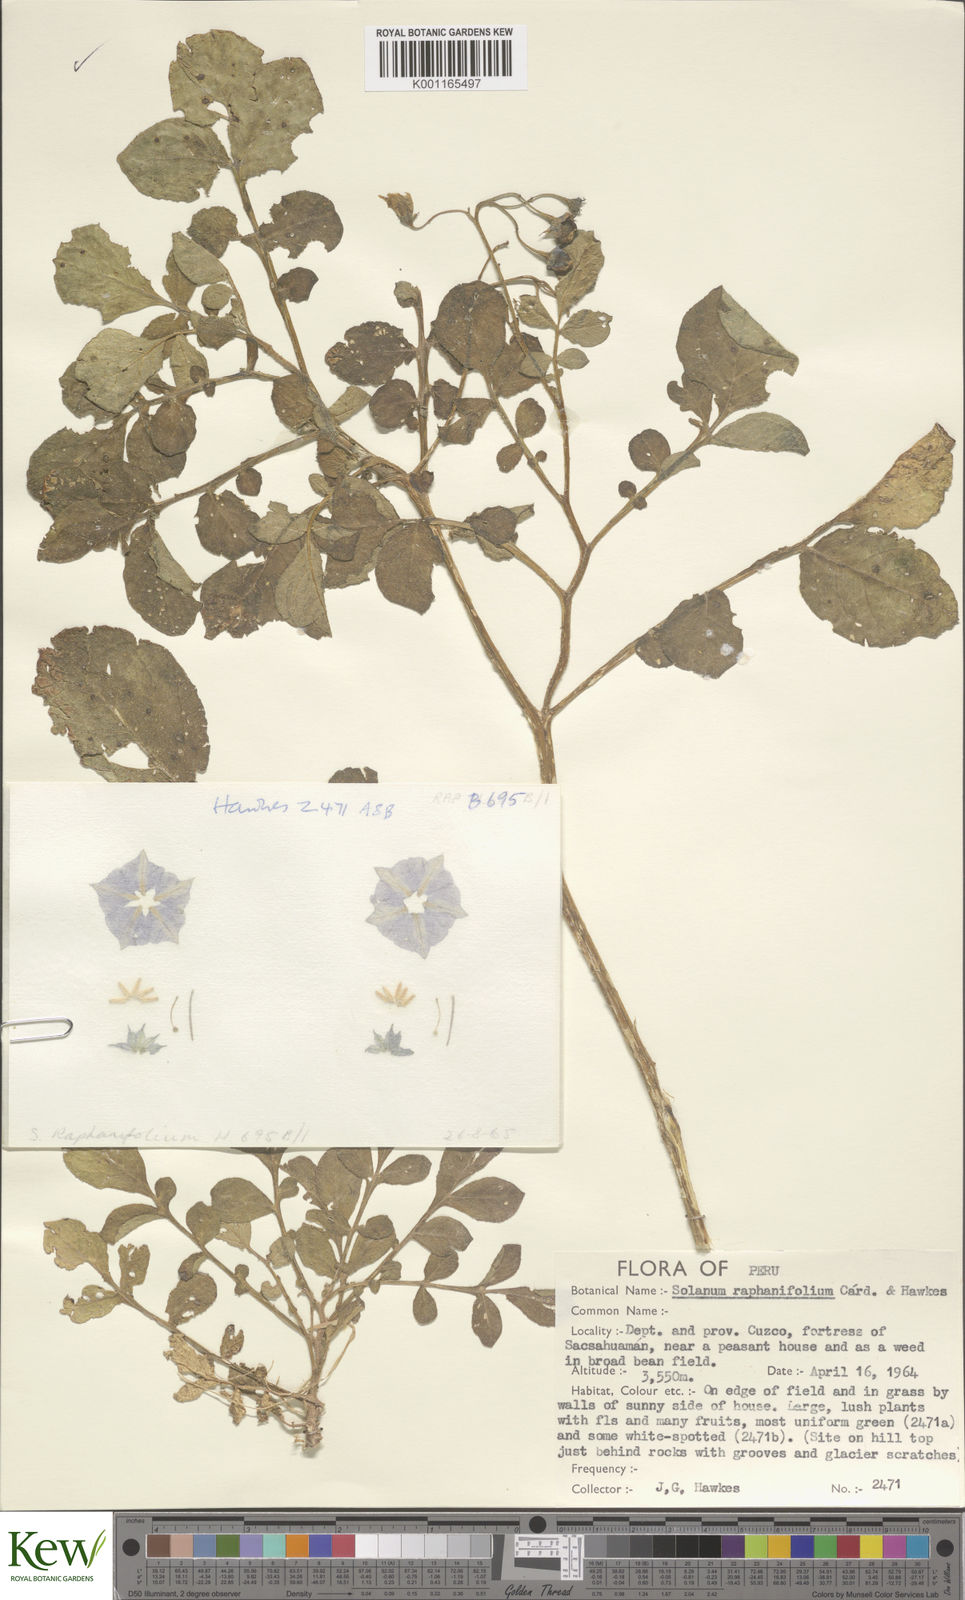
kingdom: Plantae
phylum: Tracheophyta
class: Magnoliopsida
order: Solanales
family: Solanaceae
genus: Solanum
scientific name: Solanum raphanifolium
